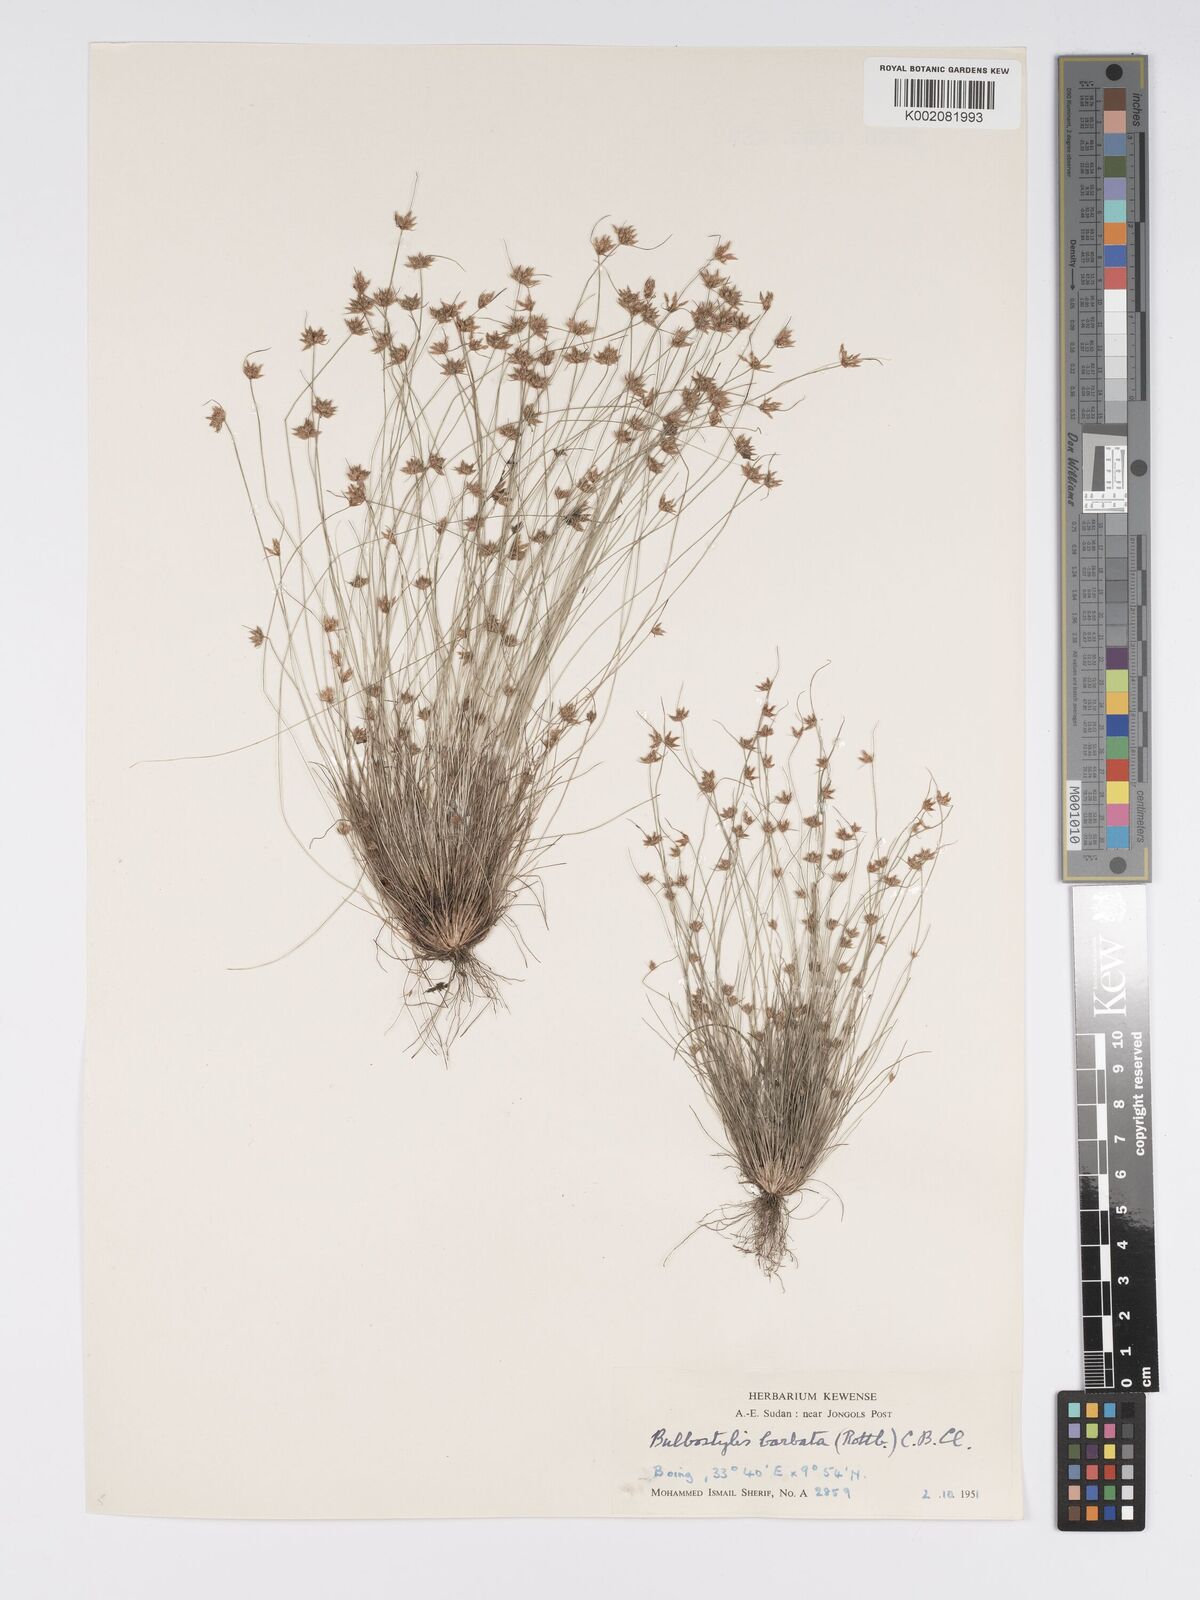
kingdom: Plantae
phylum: Tracheophyta
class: Liliopsida
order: Poales
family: Cyperaceae
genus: Bulbostylis
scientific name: Bulbostylis barbata
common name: Watergrass
